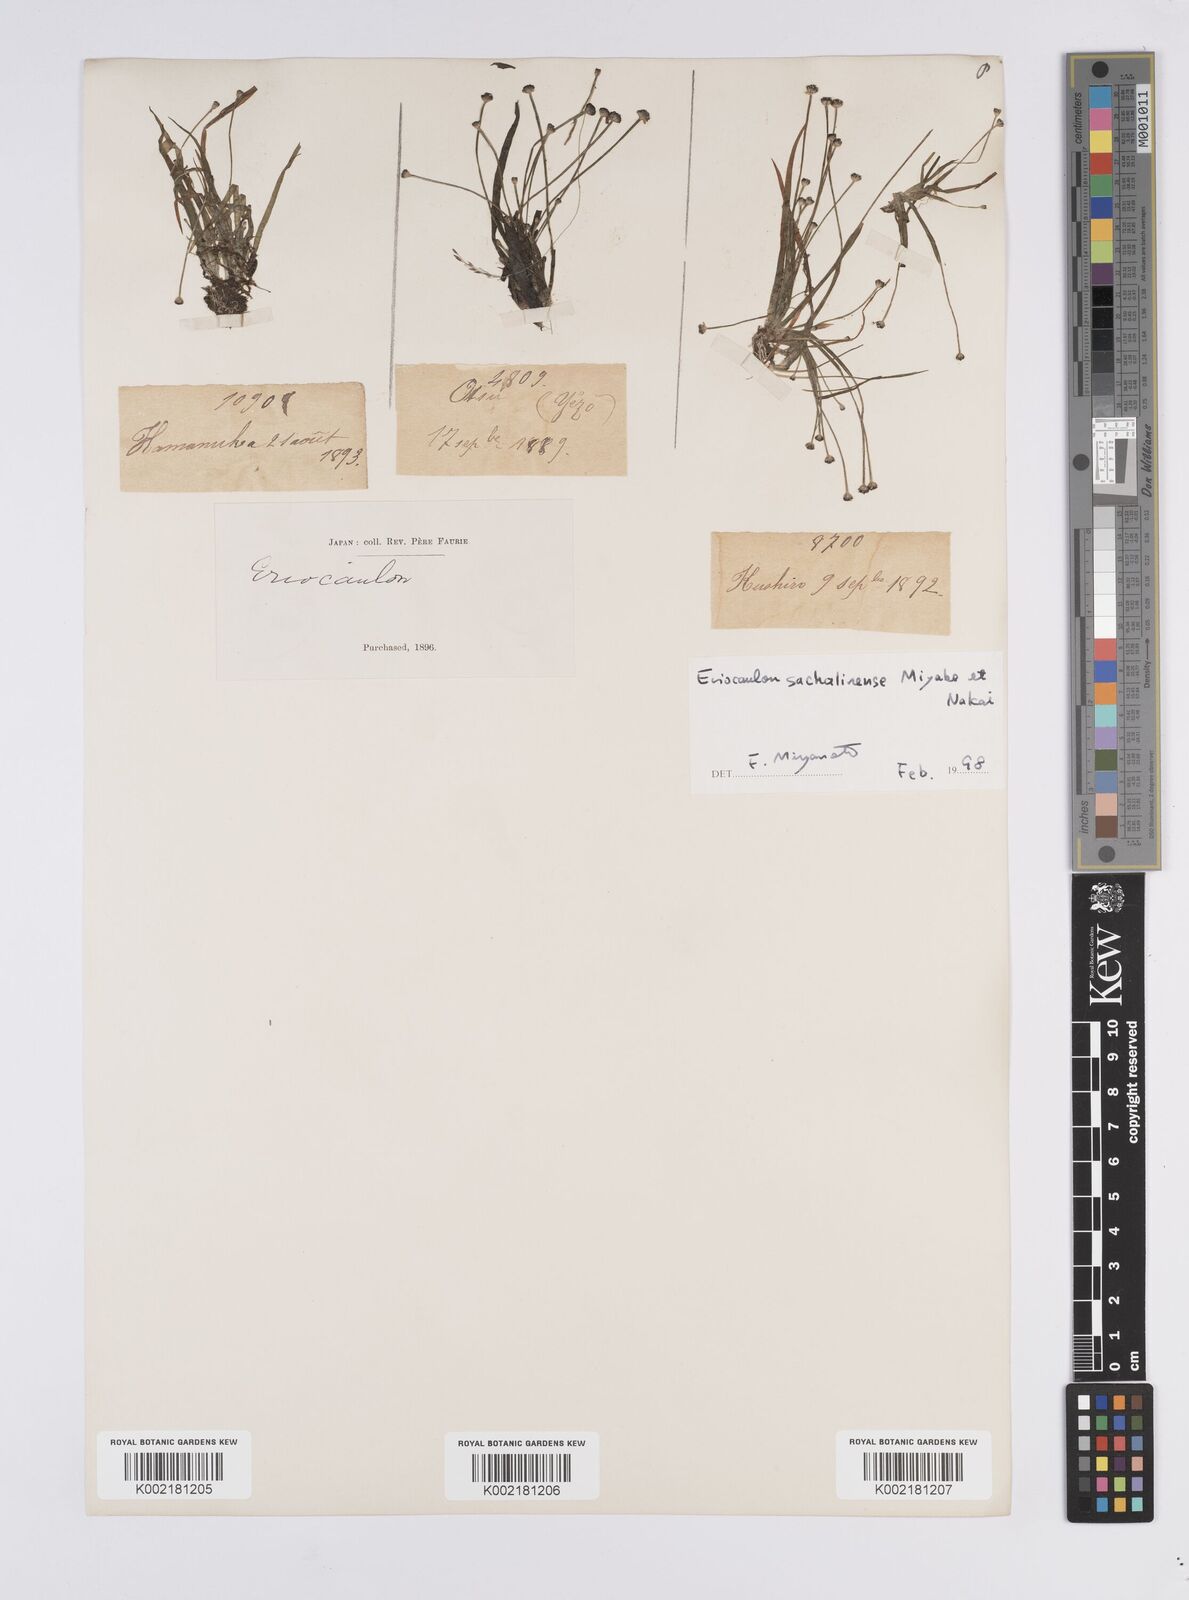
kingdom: Plantae
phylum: Tracheophyta
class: Liliopsida
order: Poales
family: Eriocaulaceae
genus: Eriocaulon
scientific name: Eriocaulon sachalinense
